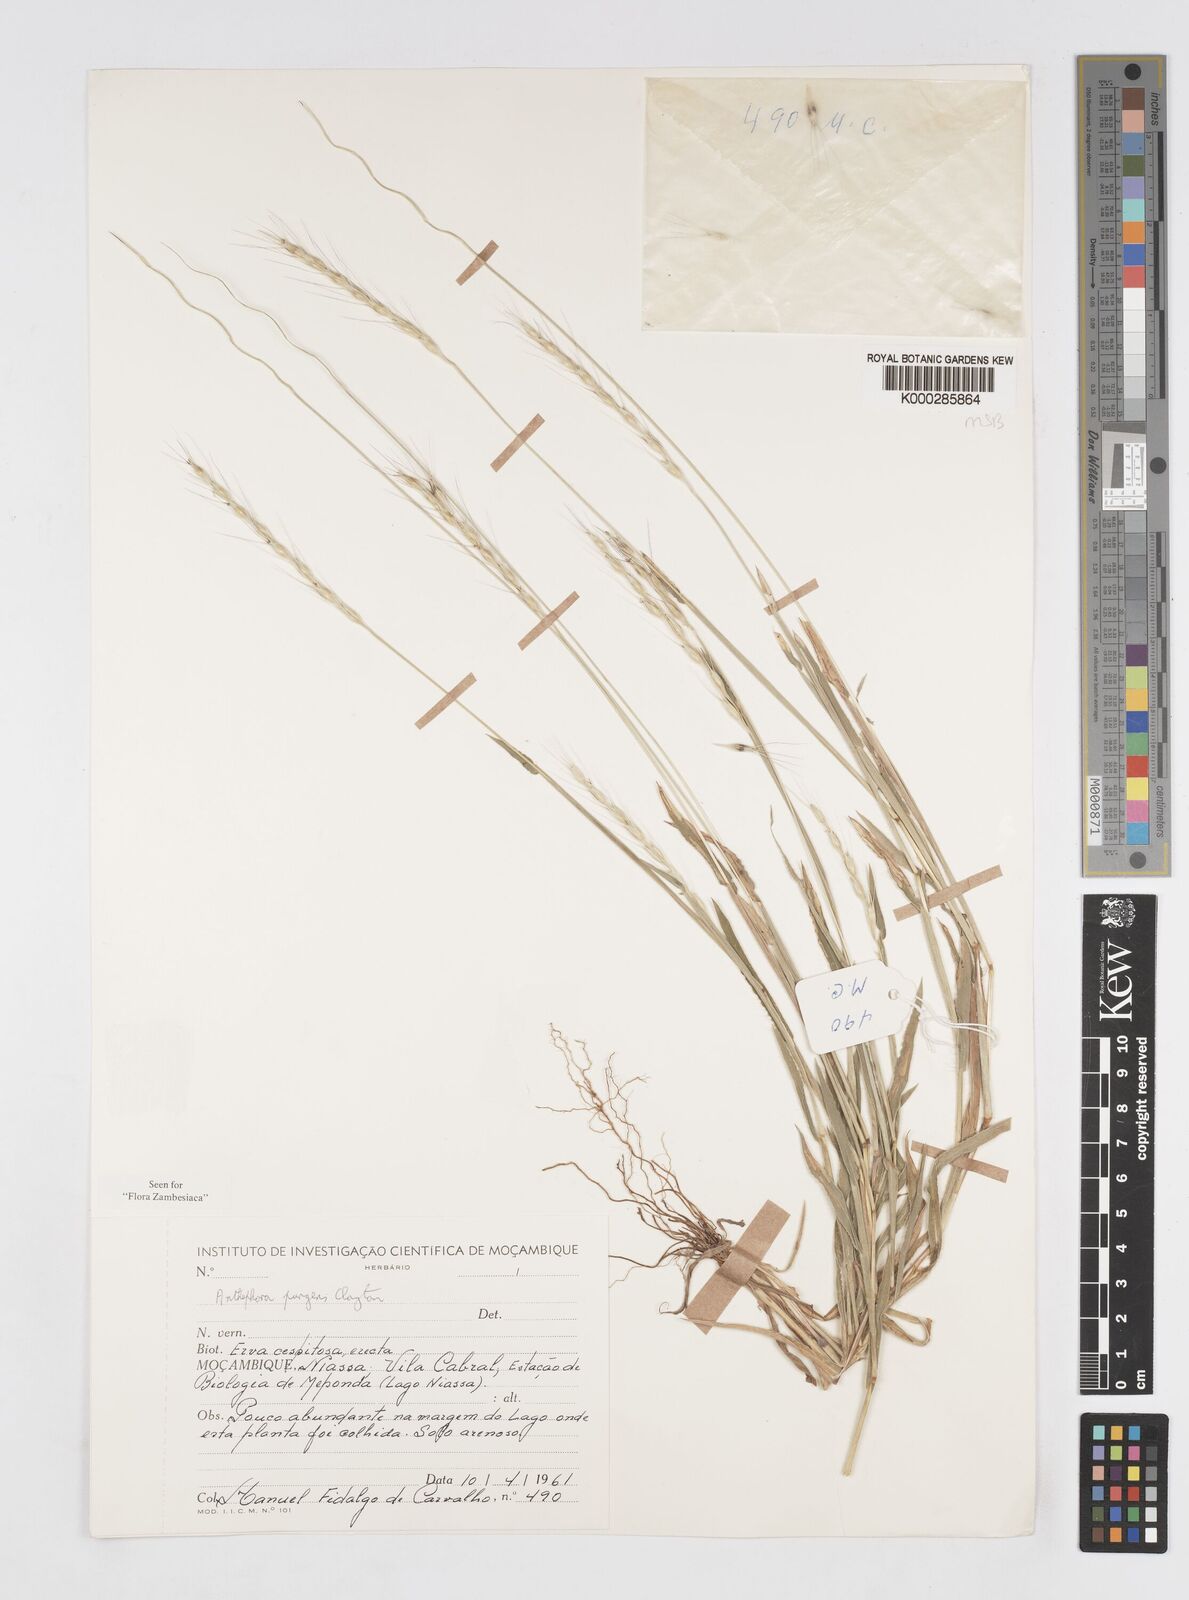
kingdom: Plantae
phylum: Tracheophyta
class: Liliopsida
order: Poales
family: Poaceae
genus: Anthephora
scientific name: Anthephora pungens
